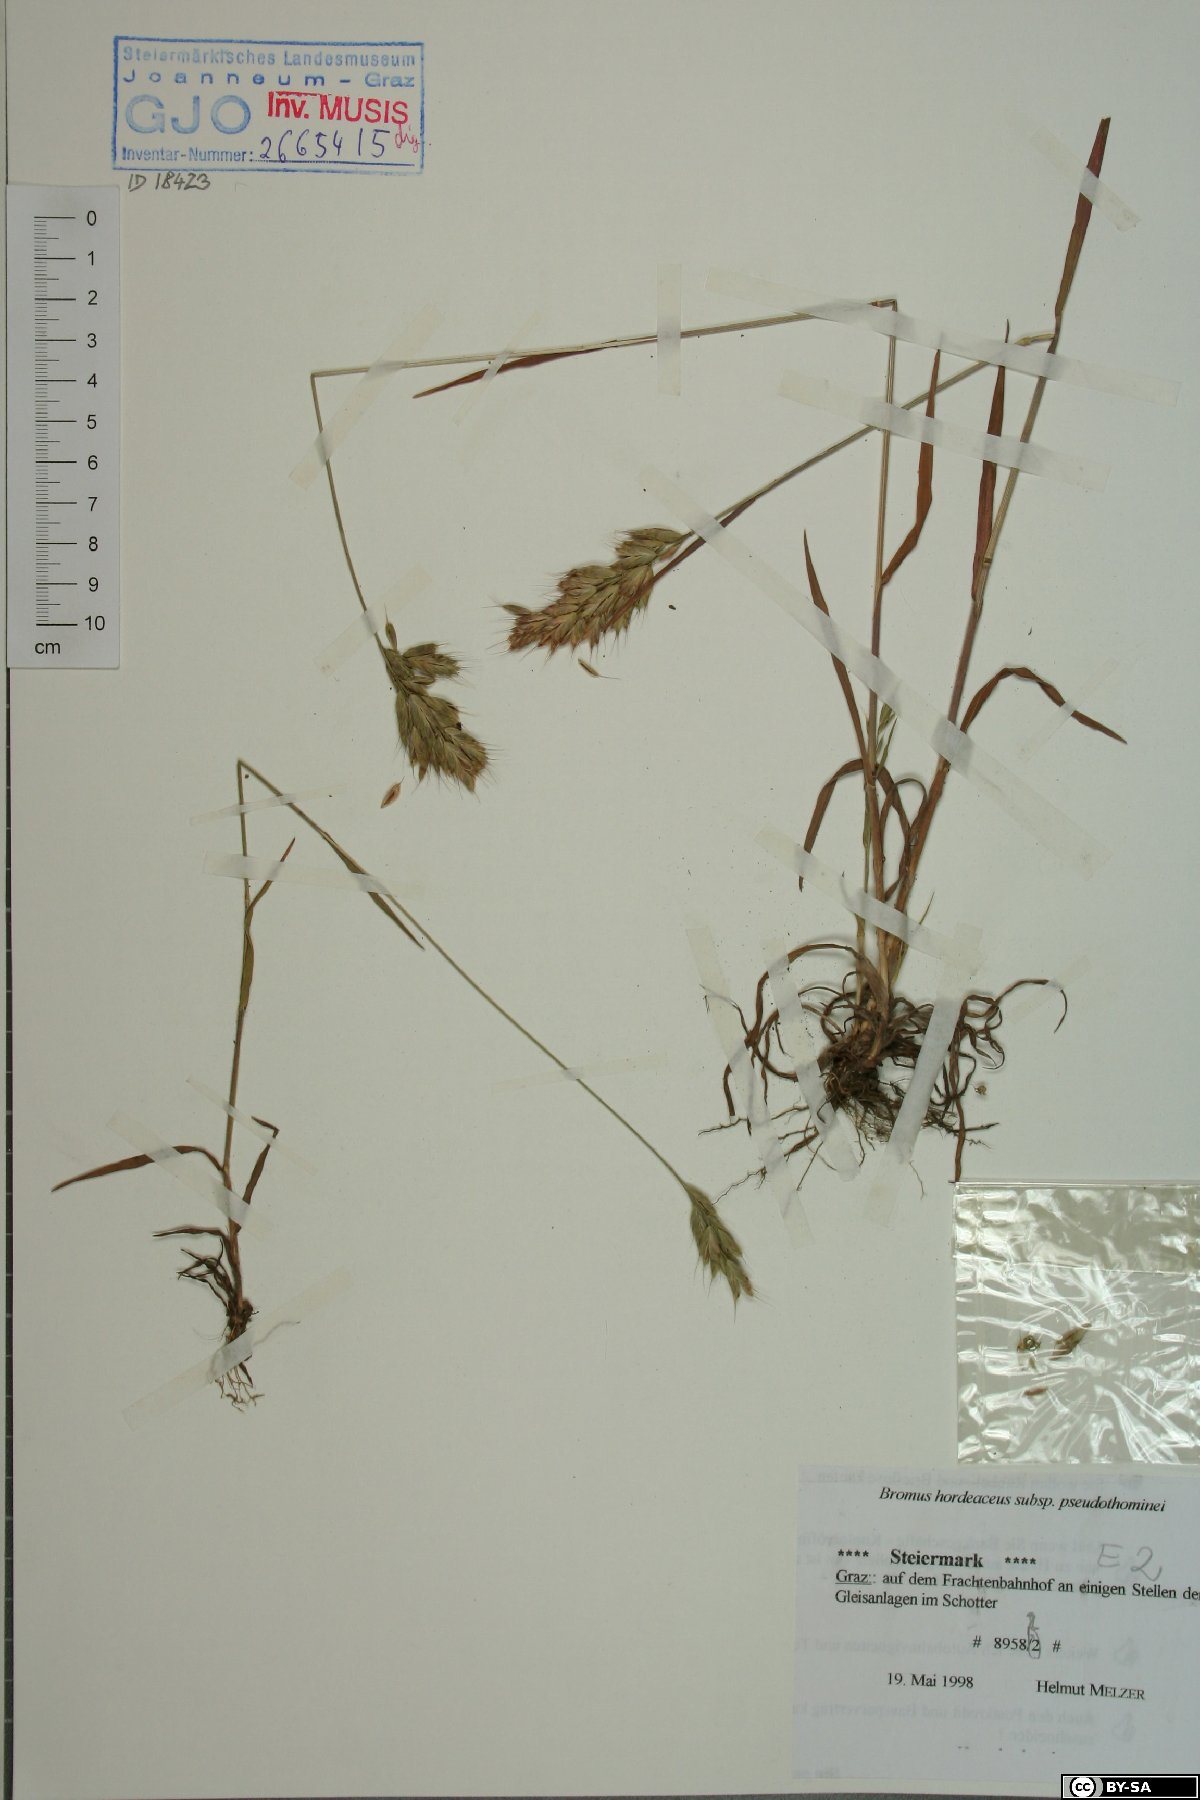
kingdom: Plantae
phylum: Tracheophyta
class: Liliopsida
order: Poales
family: Poaceae
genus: Bromus
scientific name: Bromus ferronii
